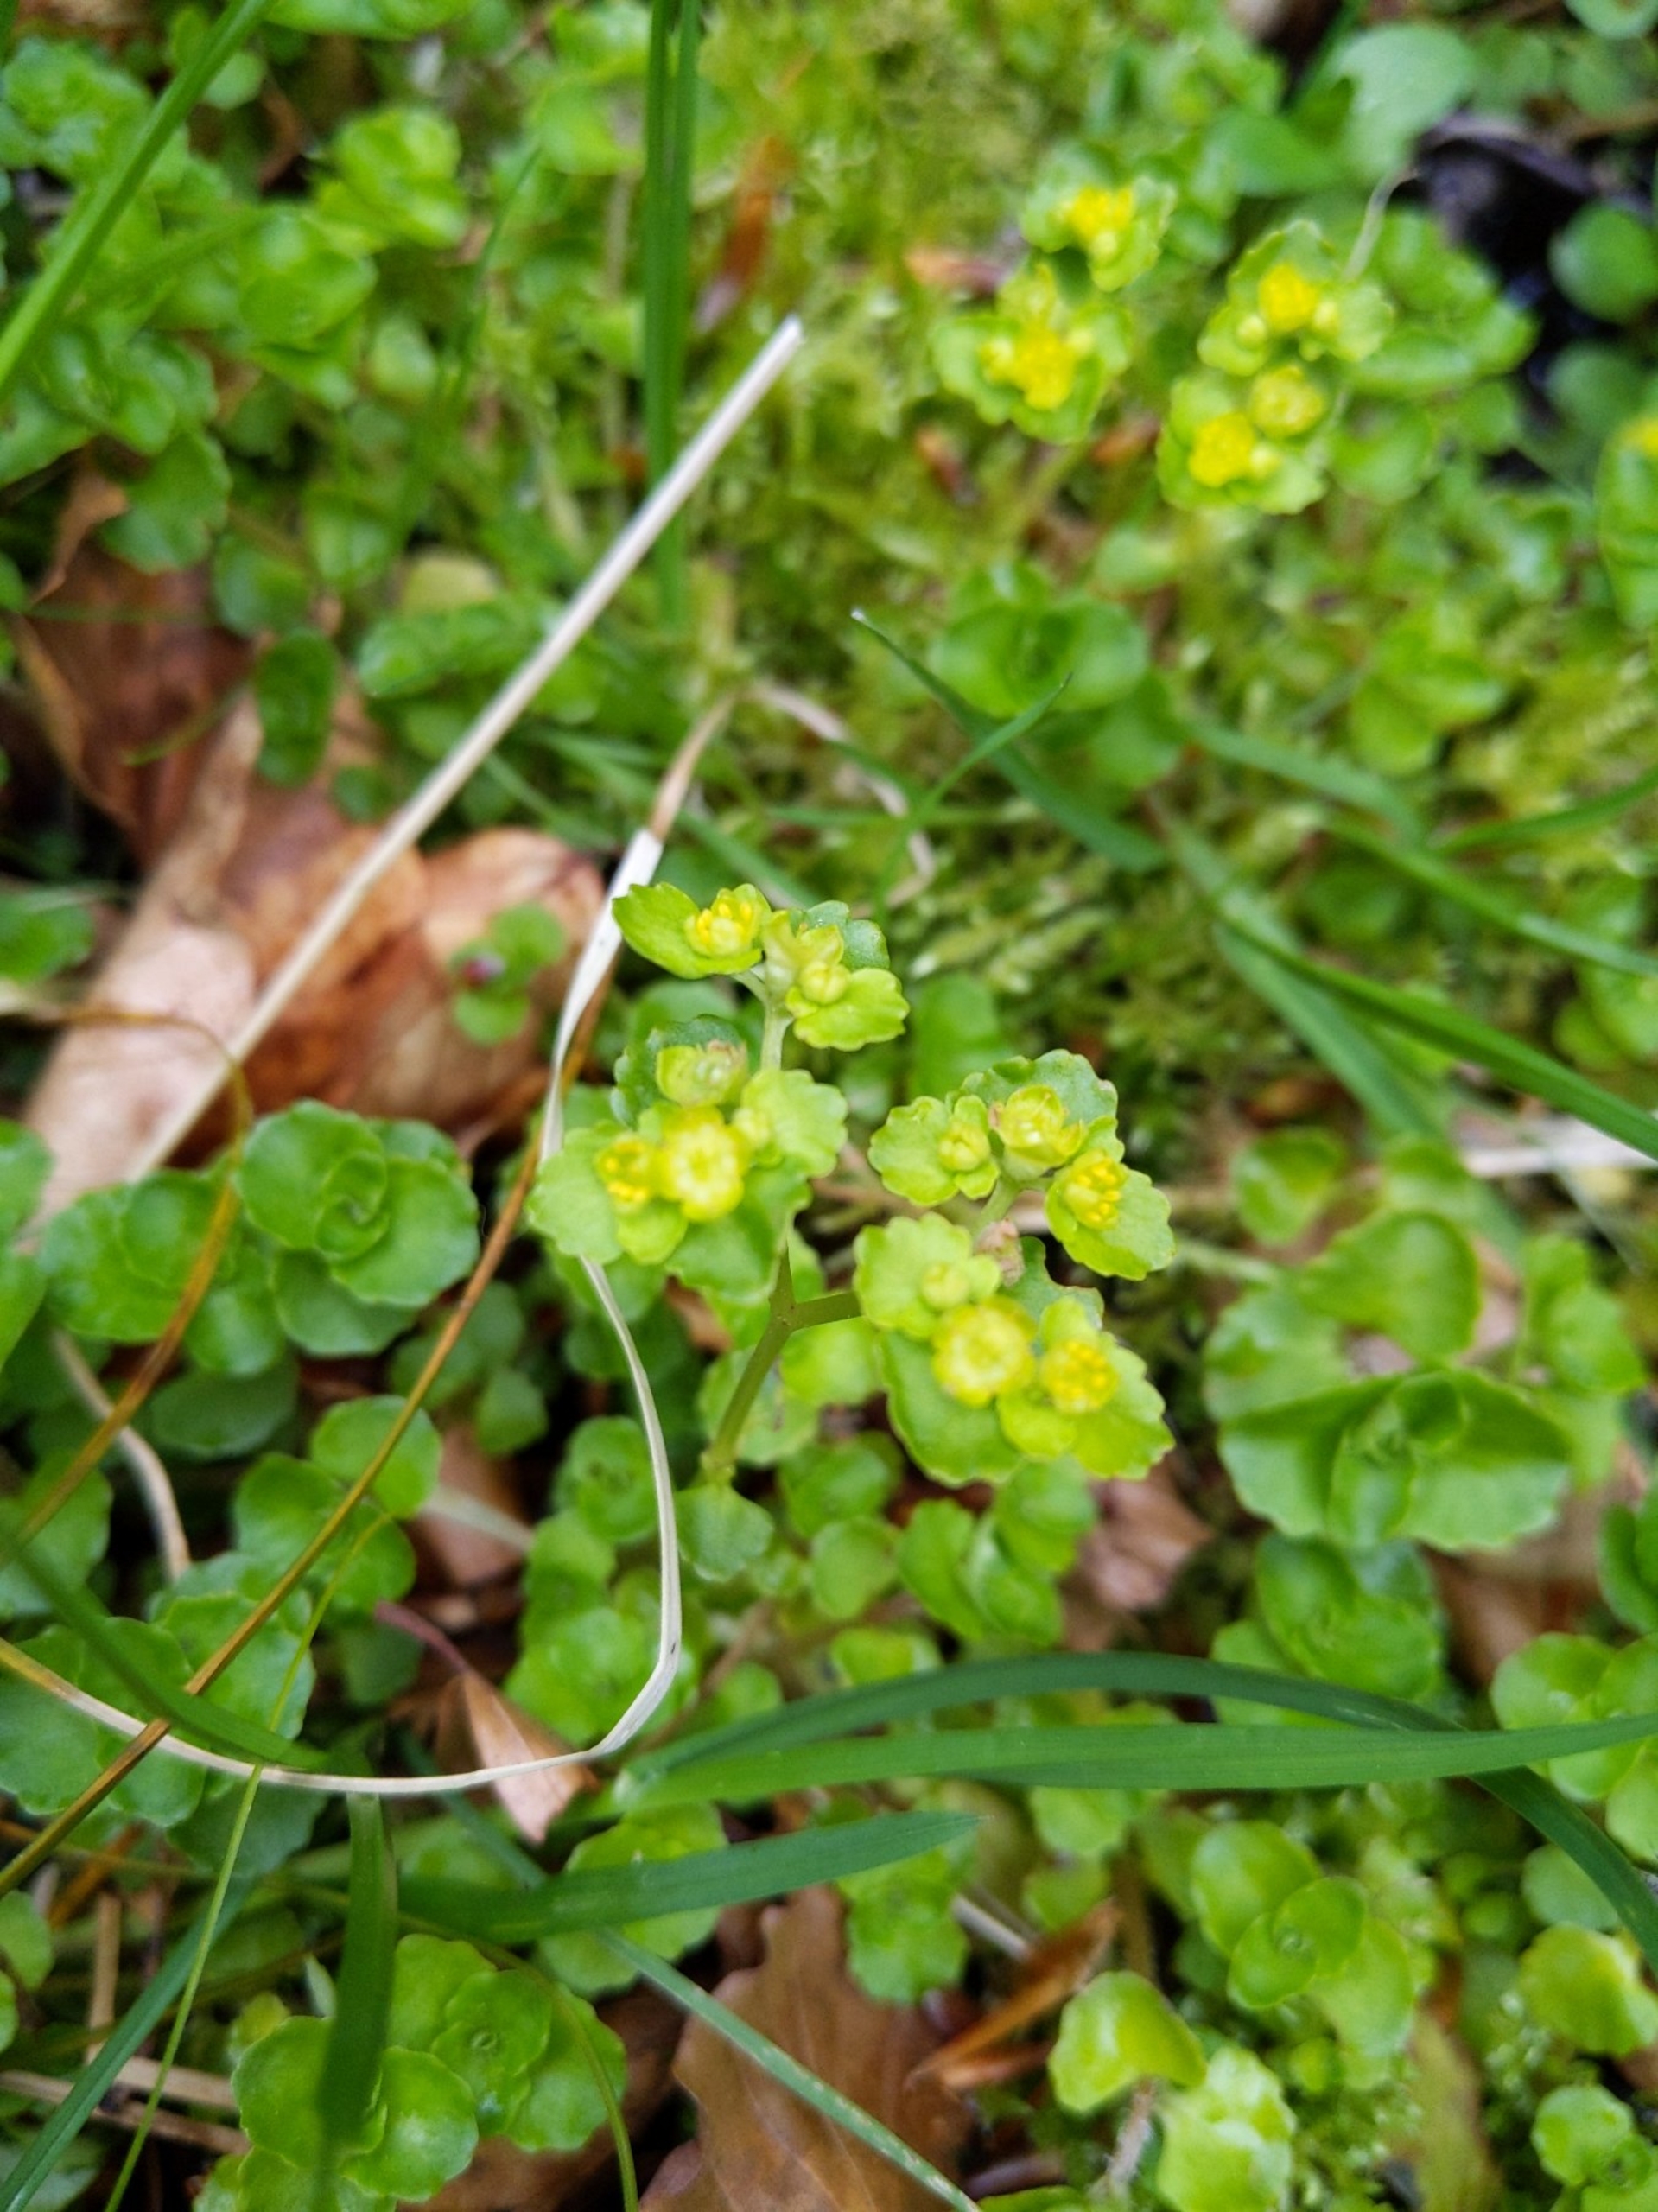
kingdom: Plantae
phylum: Tracheophyta
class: Magnoliopsida
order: Saxifragales
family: Saxifragaceae
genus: Chrysosplenium
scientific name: Chrysosplenium oppositifolium
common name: Småbladet milturt
